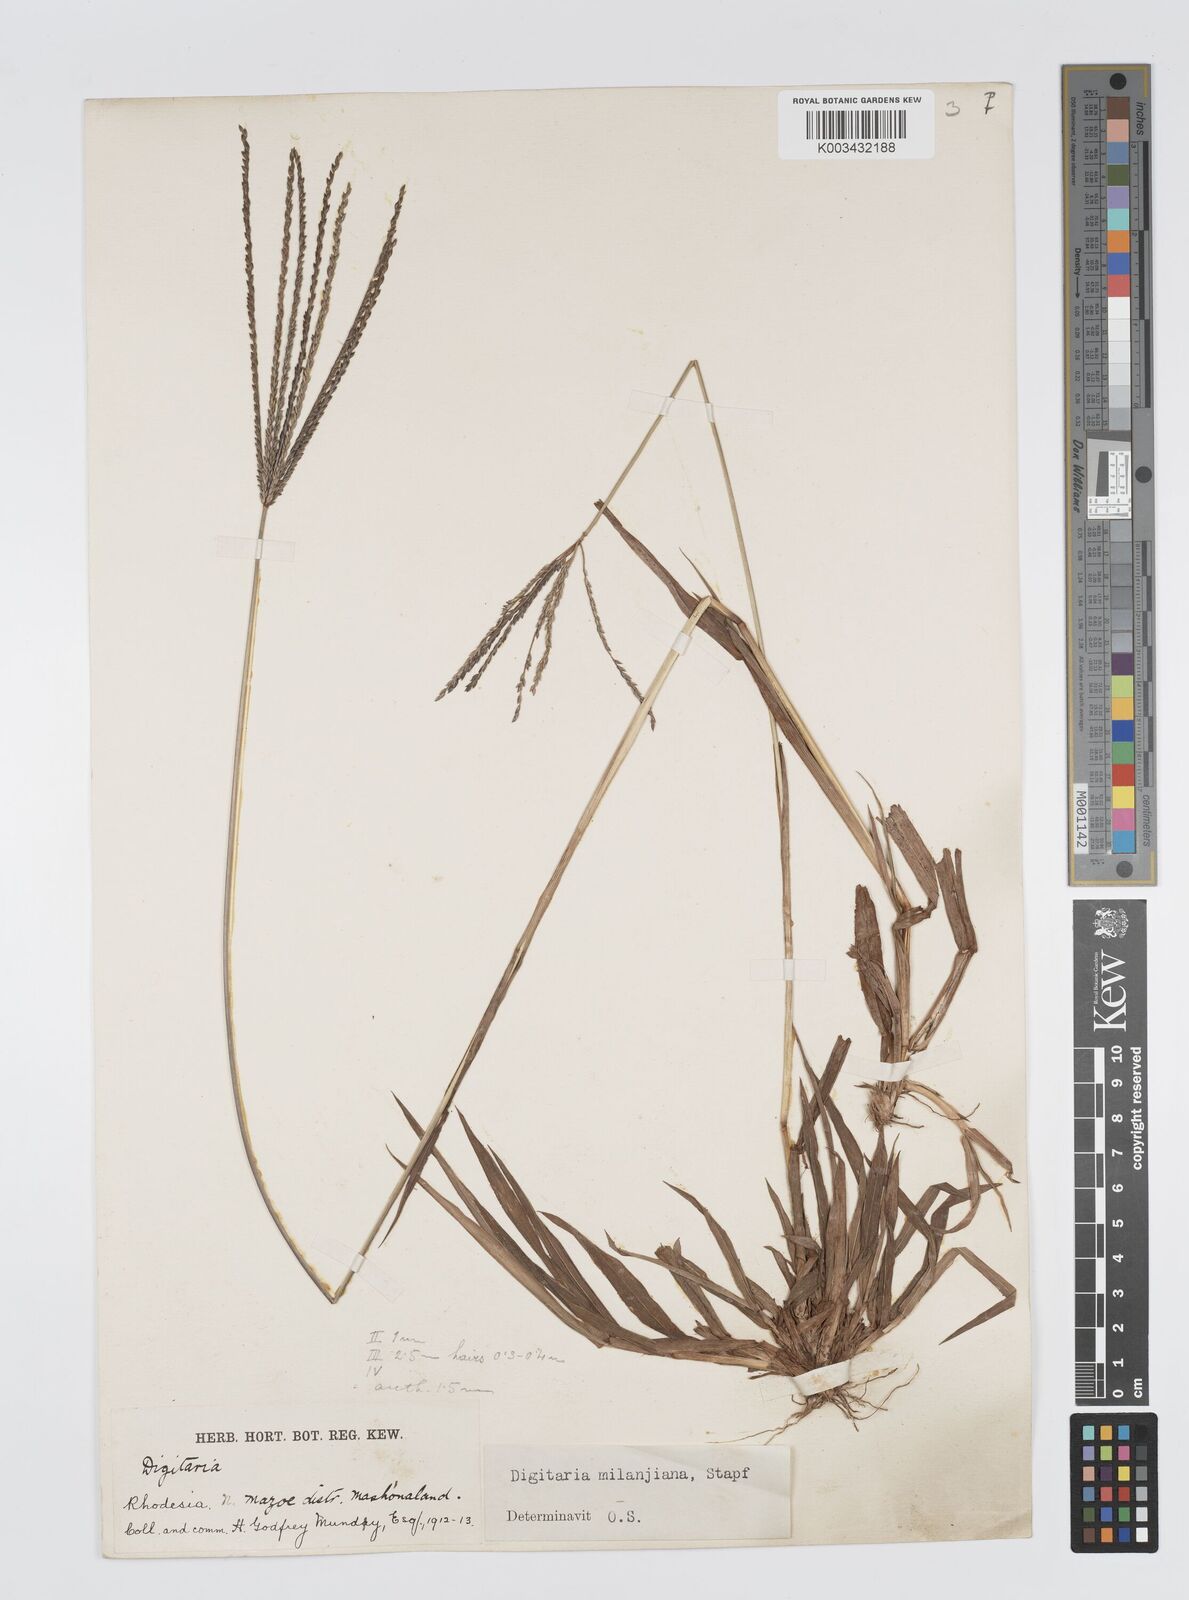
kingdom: Plantae
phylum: Tracheophyta
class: Liliopsida
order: Poales
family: Poaceae
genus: Digitaria
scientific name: Digitaria milanjiana
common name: Madagascar crabgrass
